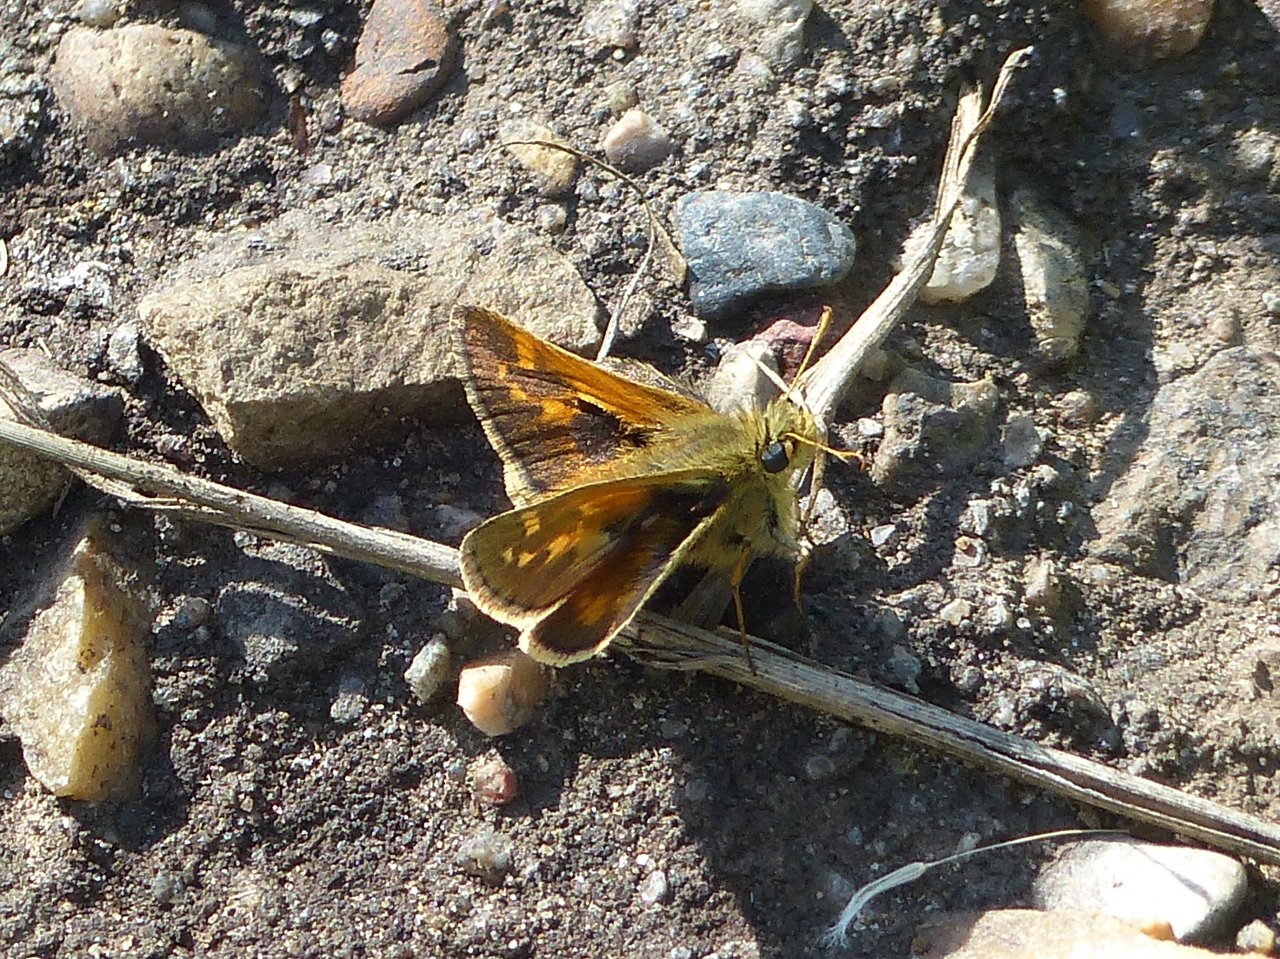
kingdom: Animalia
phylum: Arthropoda
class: Insecta
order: Lepidoptera
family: Hesperiidae
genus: Polites
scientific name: Polites sabuleti
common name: Draco Skipper
